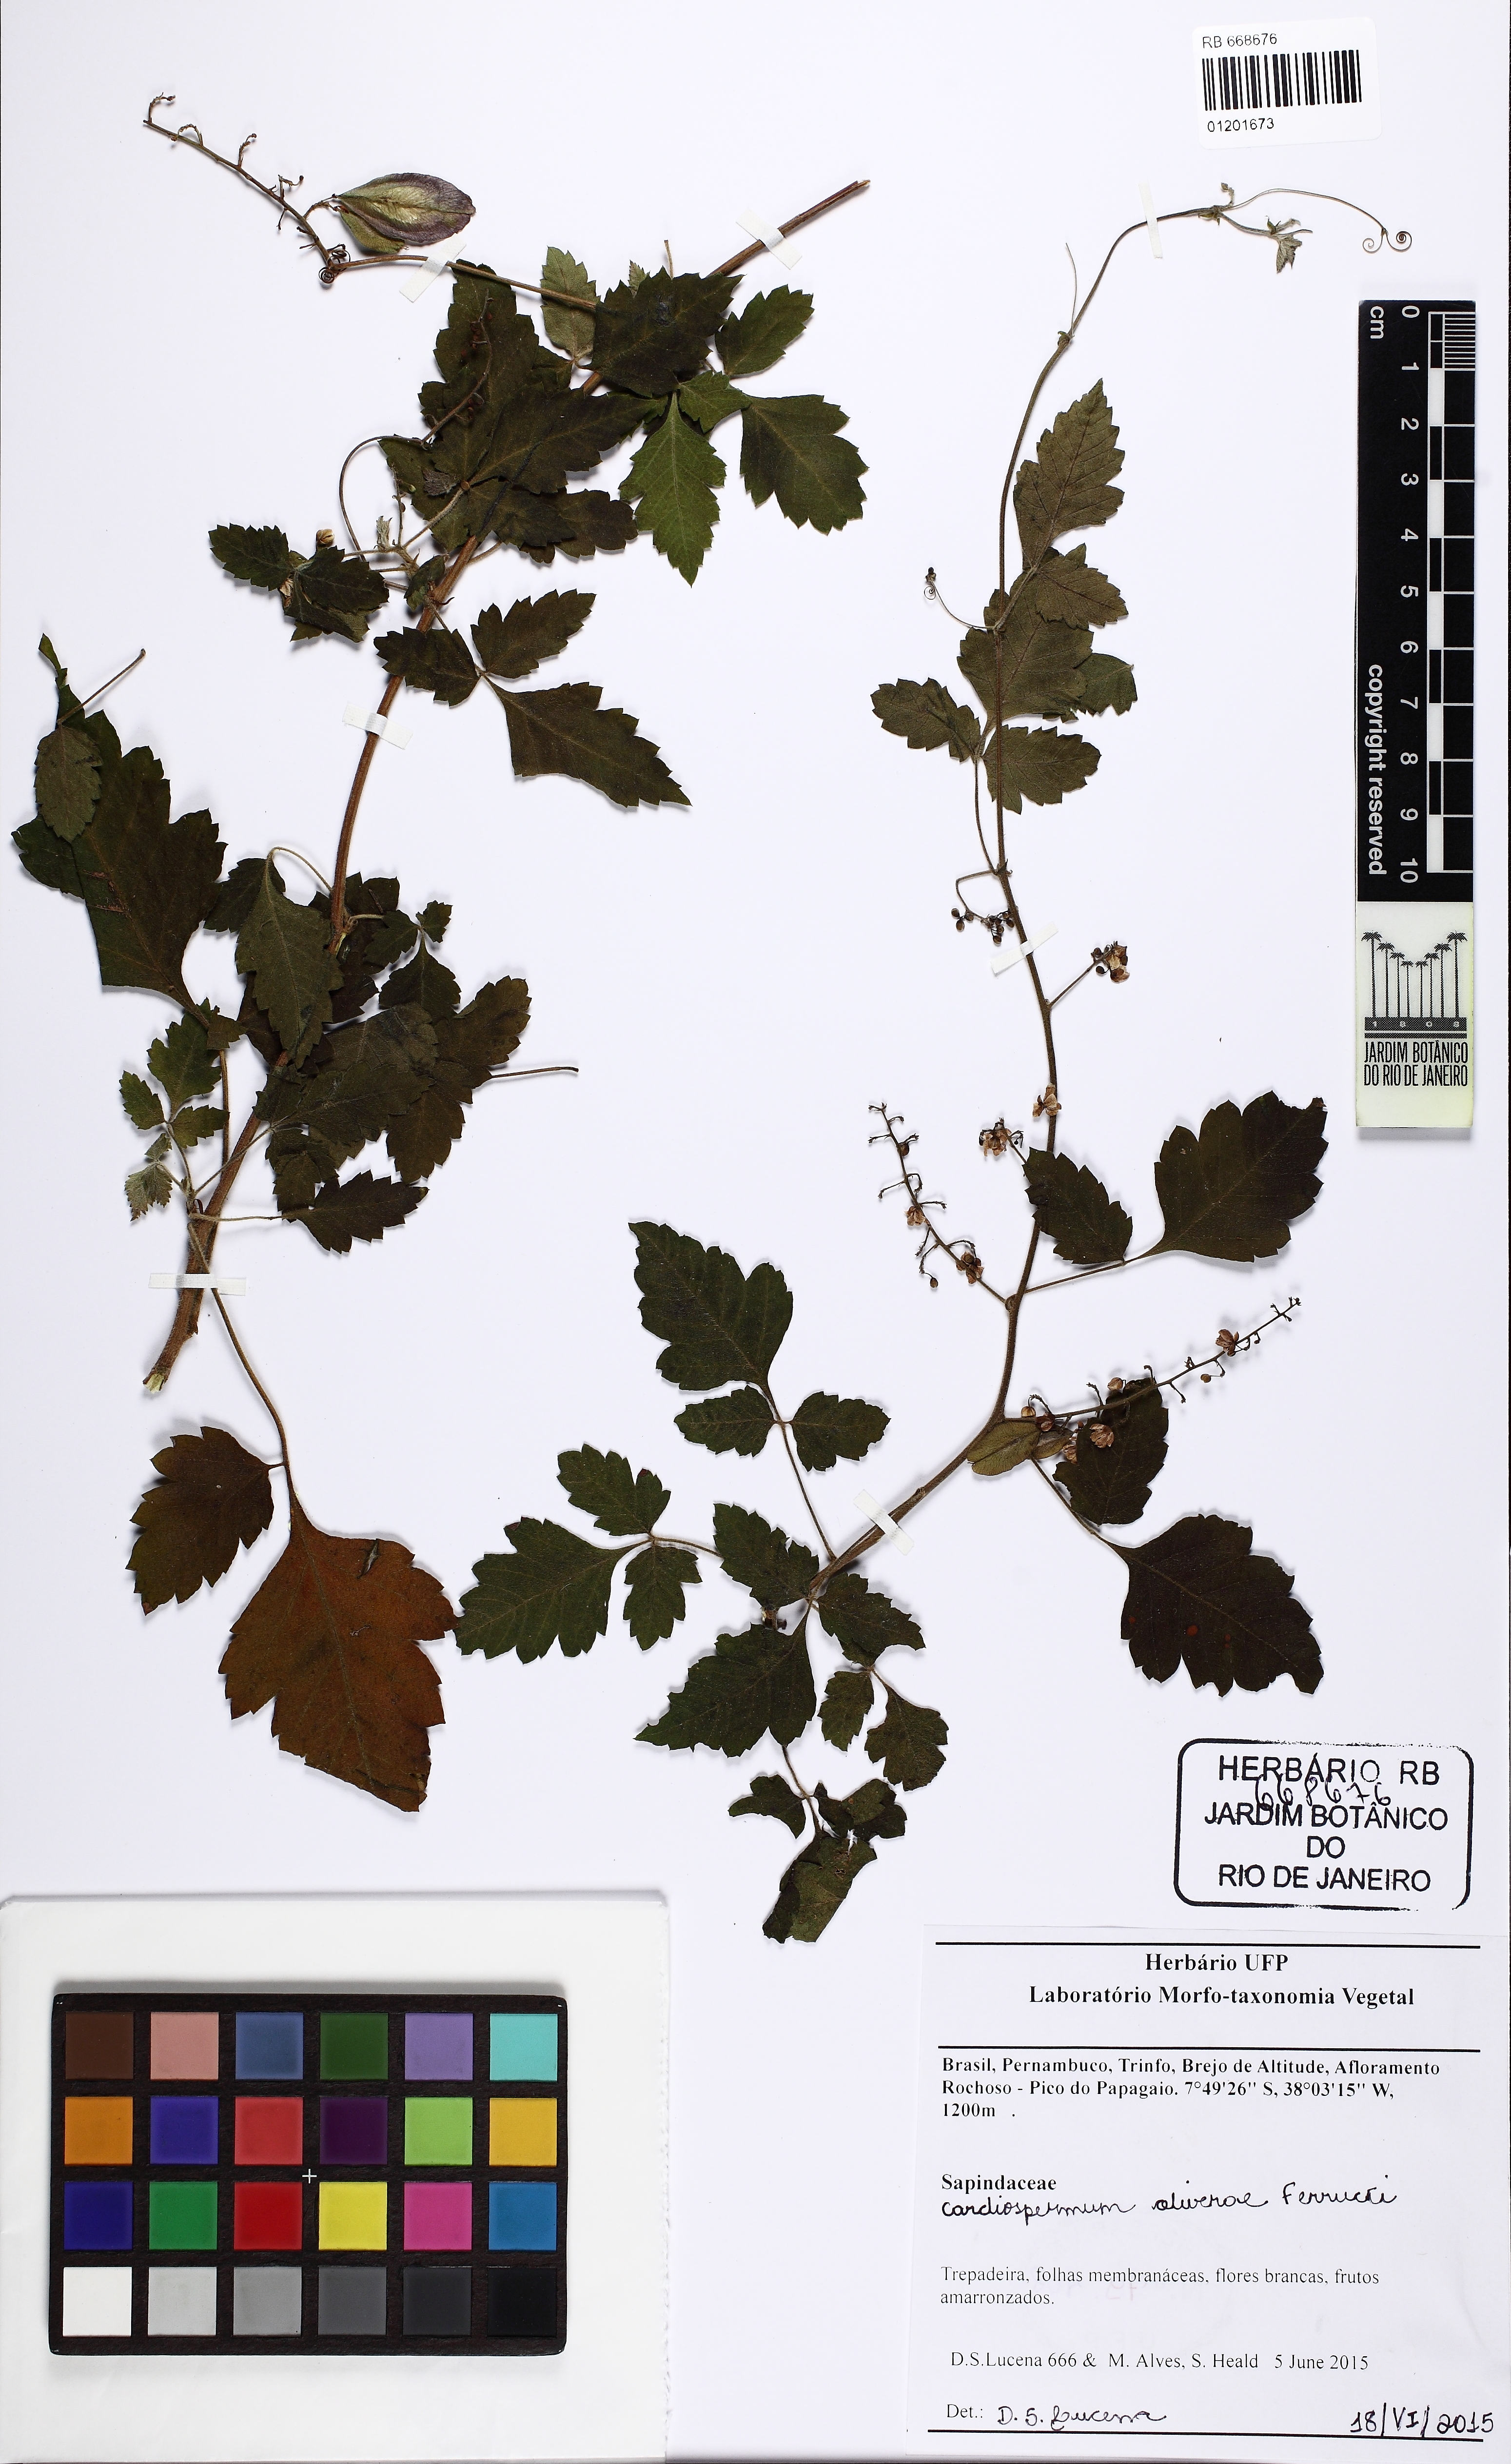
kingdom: Plantae
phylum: Tracheophyta
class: Magnoliopsida
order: Sapindales
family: Sapindaceae
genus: Urvillea
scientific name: Urvillea oliveirae
